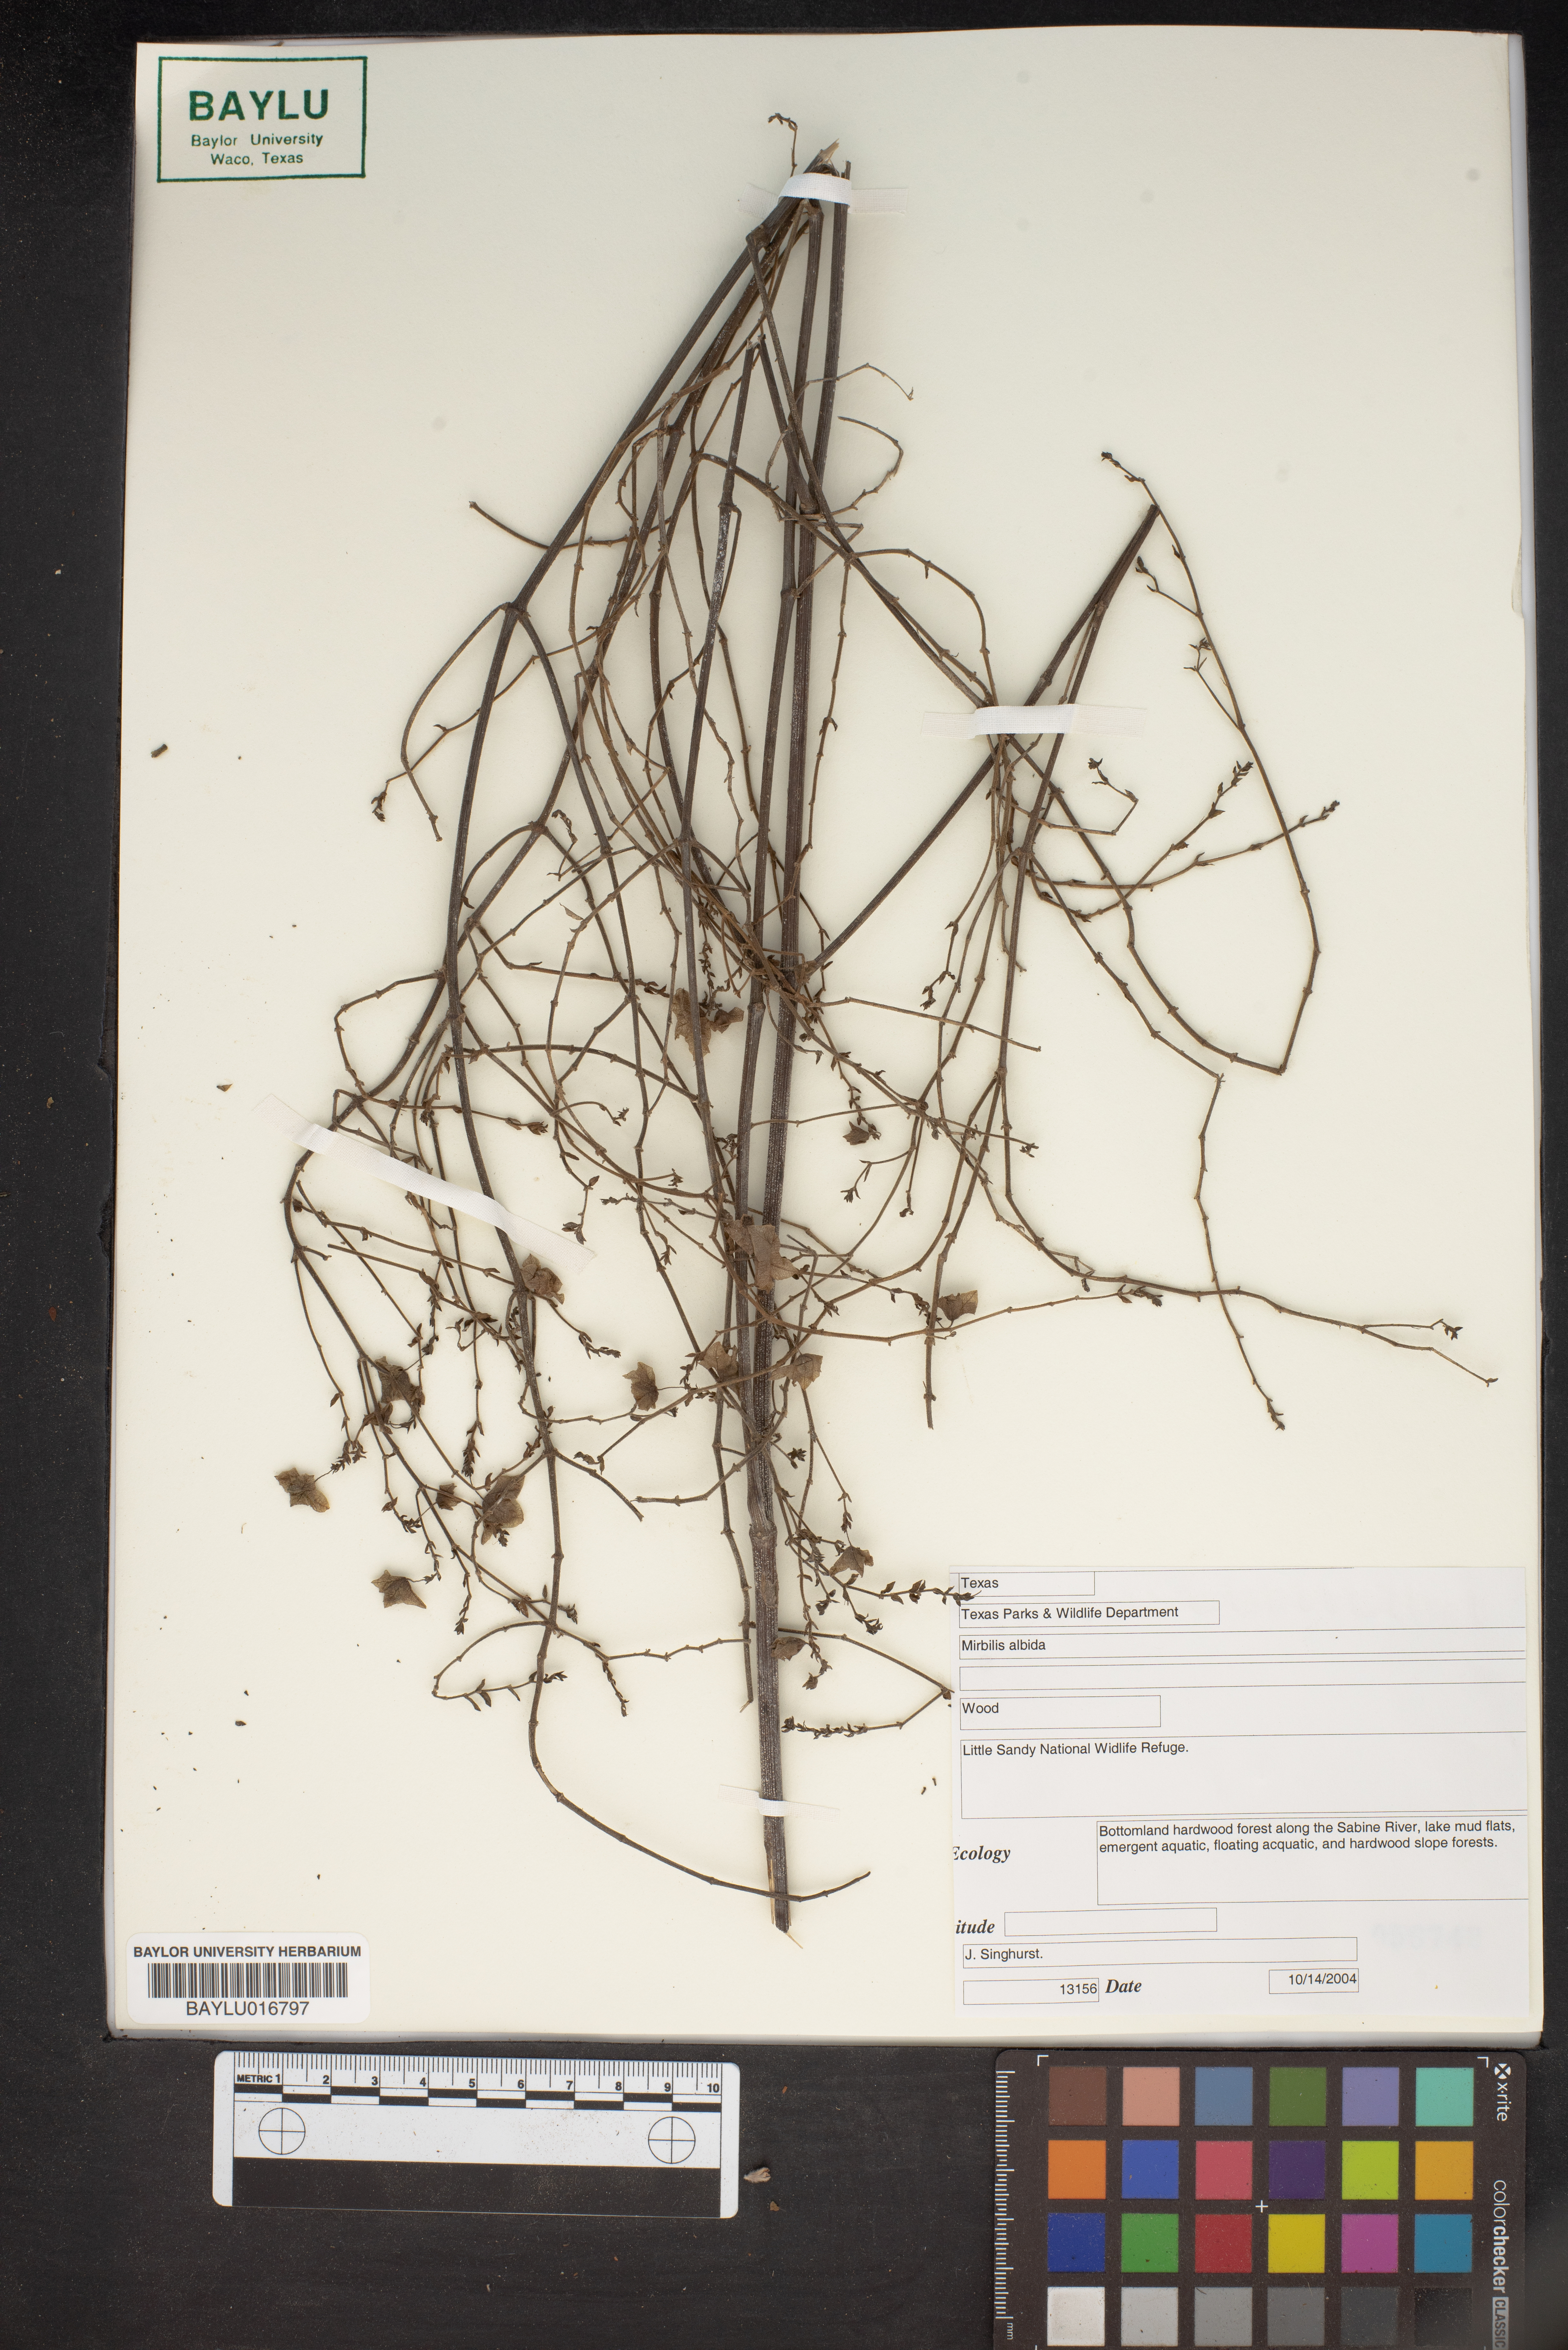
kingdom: Plantae
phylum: Tracheophyta
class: Magnoliopsida
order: Caryophyllales
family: Nyctaginaceae
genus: Mirabilis
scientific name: Mirabilis albida
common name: Hairy four-o'clock
